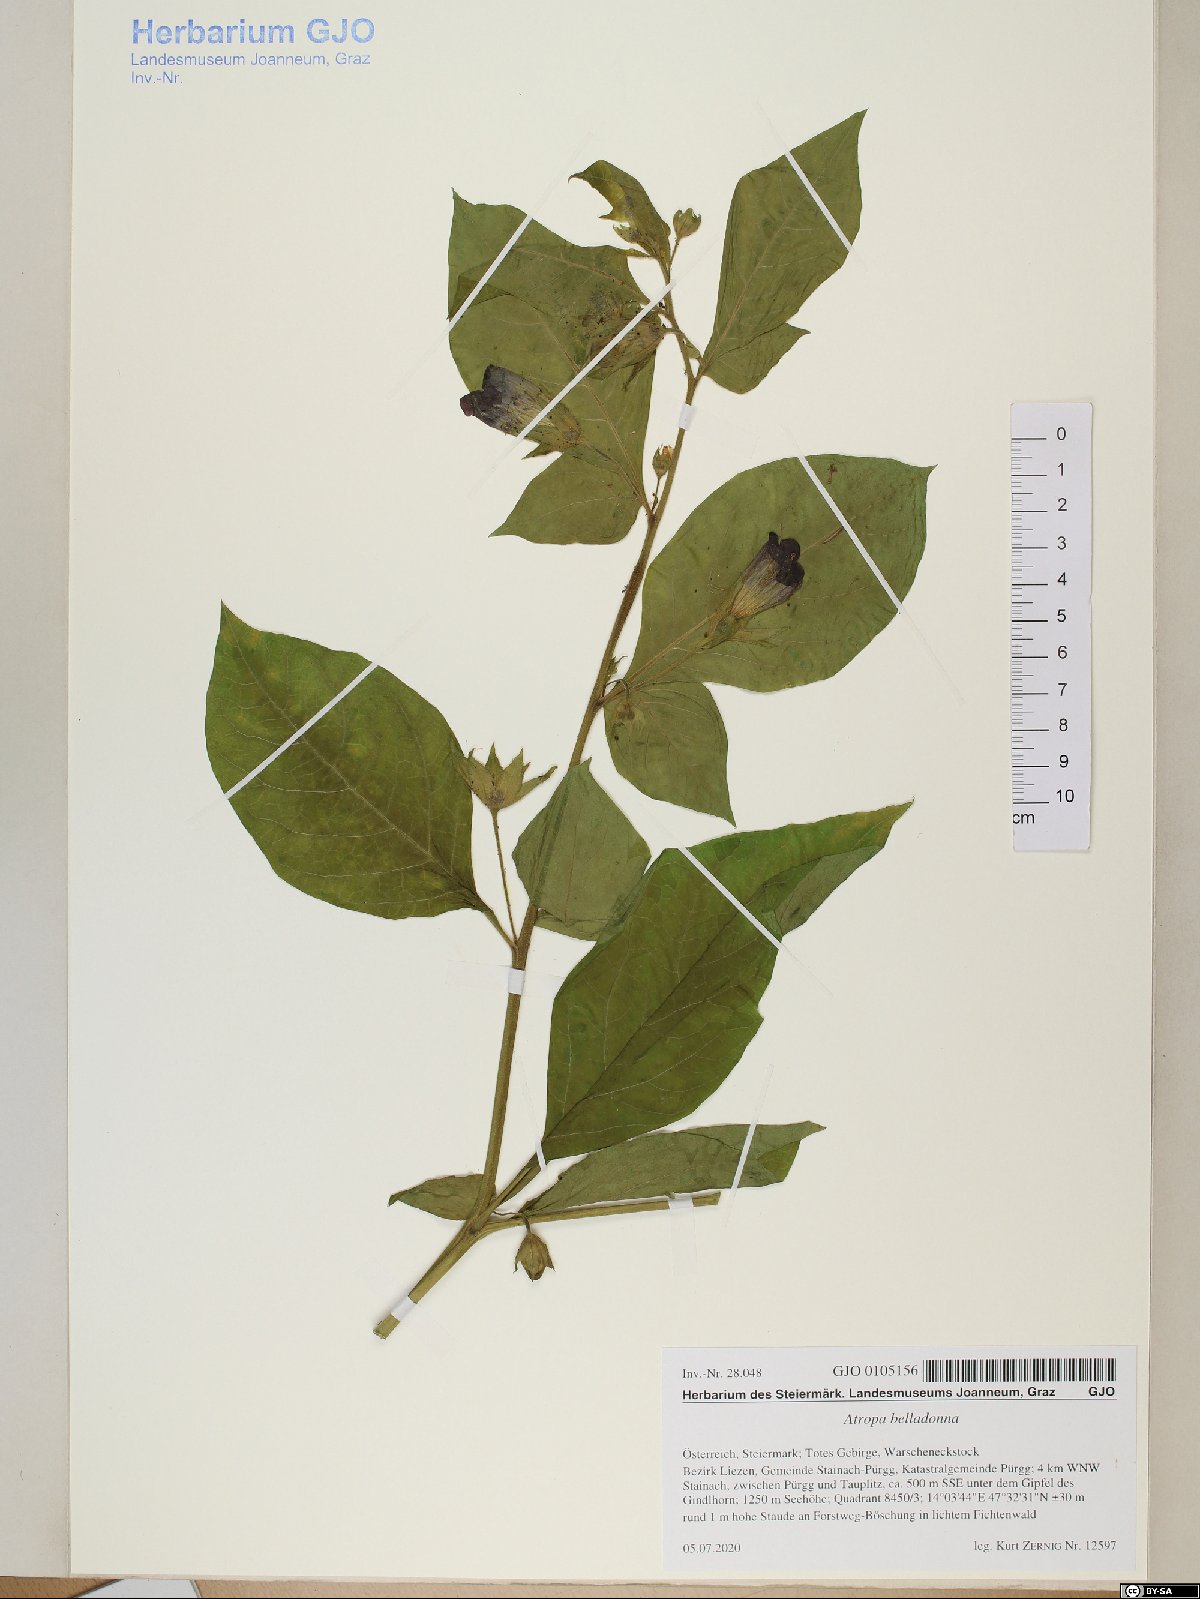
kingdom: Plantae
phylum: Tracheophyta
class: Magnoliopsida
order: Solanales
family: Solanaceae
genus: Atropa
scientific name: Atropa belladonna
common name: Deadly nightshade
